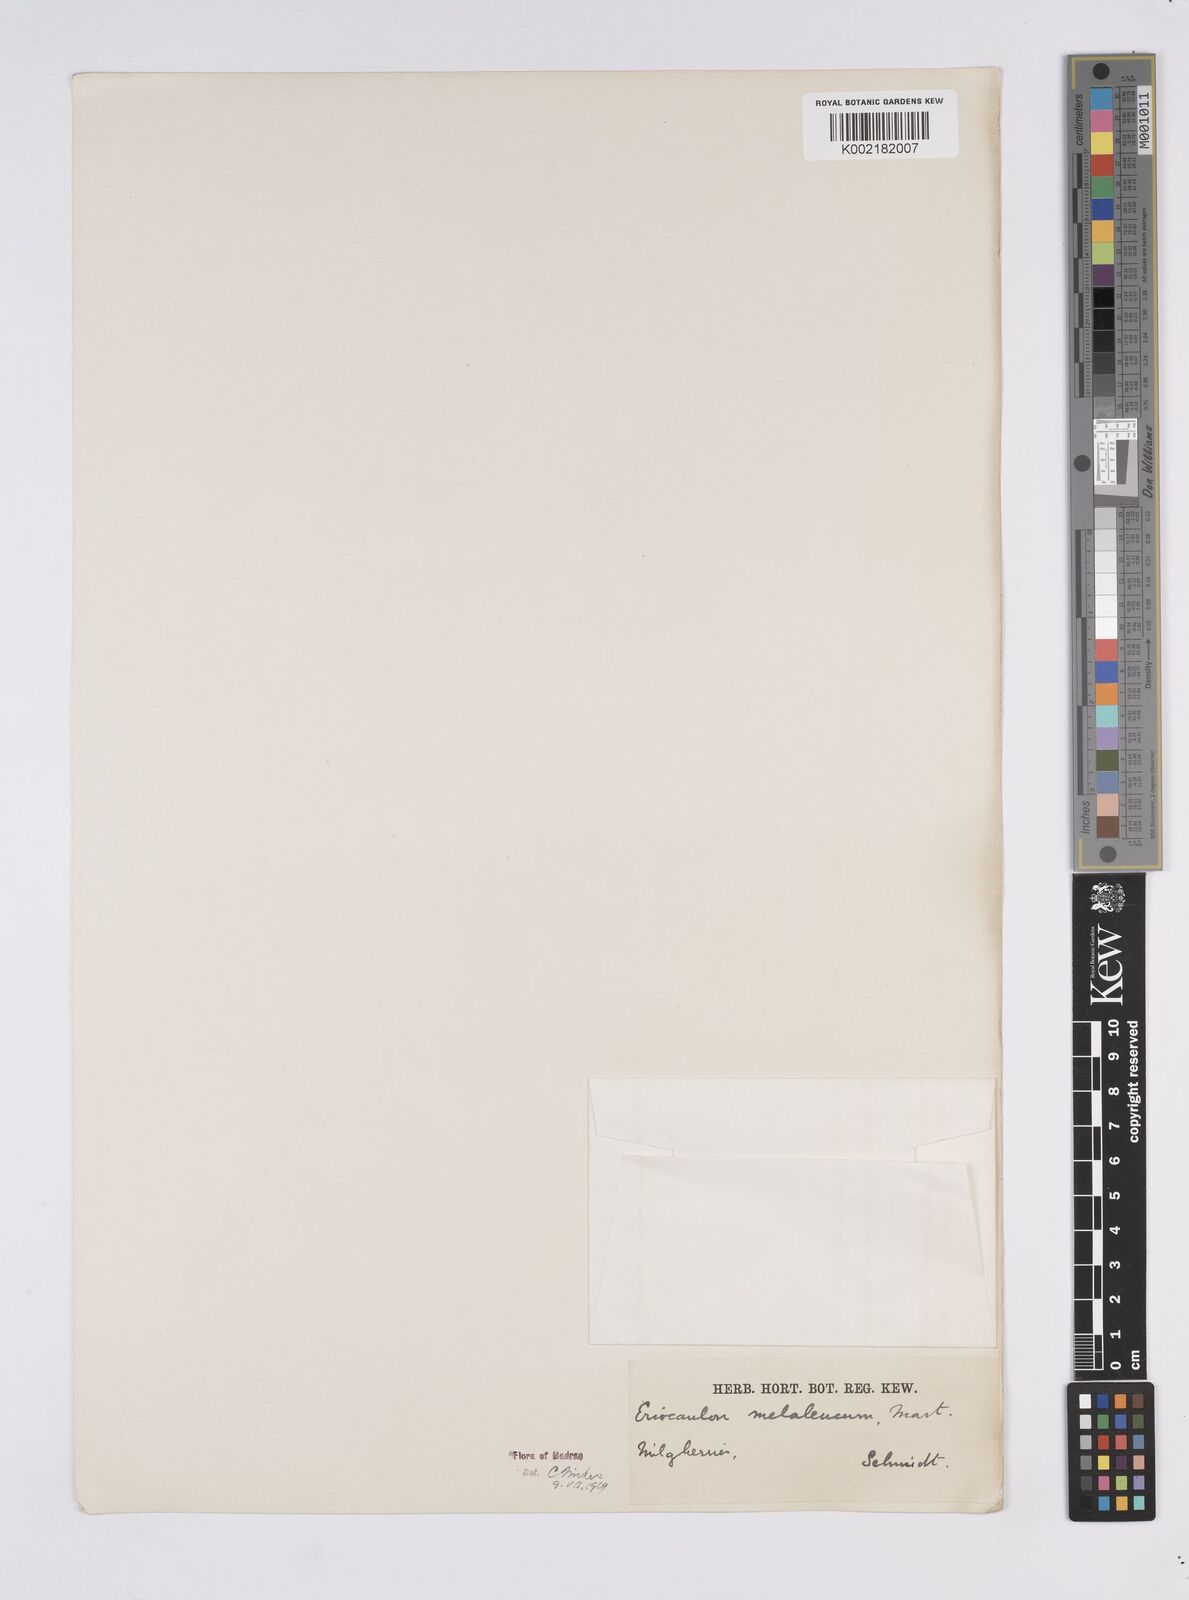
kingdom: Plantae
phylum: Tracheophyta
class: Liliopsida
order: Poales
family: Eriocaulaceae
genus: Eriocaulon
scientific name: Eriocaulon leucomelas
